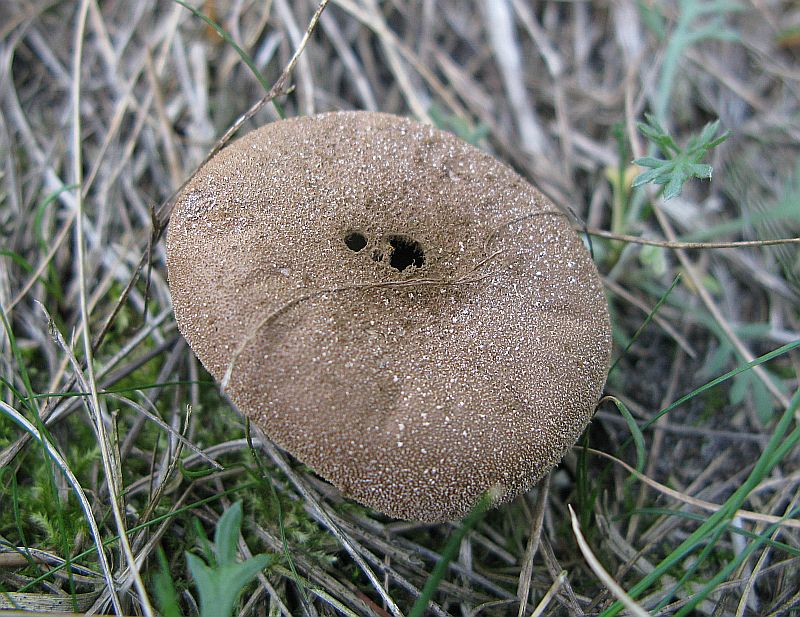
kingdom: Fungi
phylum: Basidiomycota
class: Agaricomycetes
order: Agaricales
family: Lycoperdaceae
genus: Lycoperdon
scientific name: Lycoperdon pratense
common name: flad støvbold
